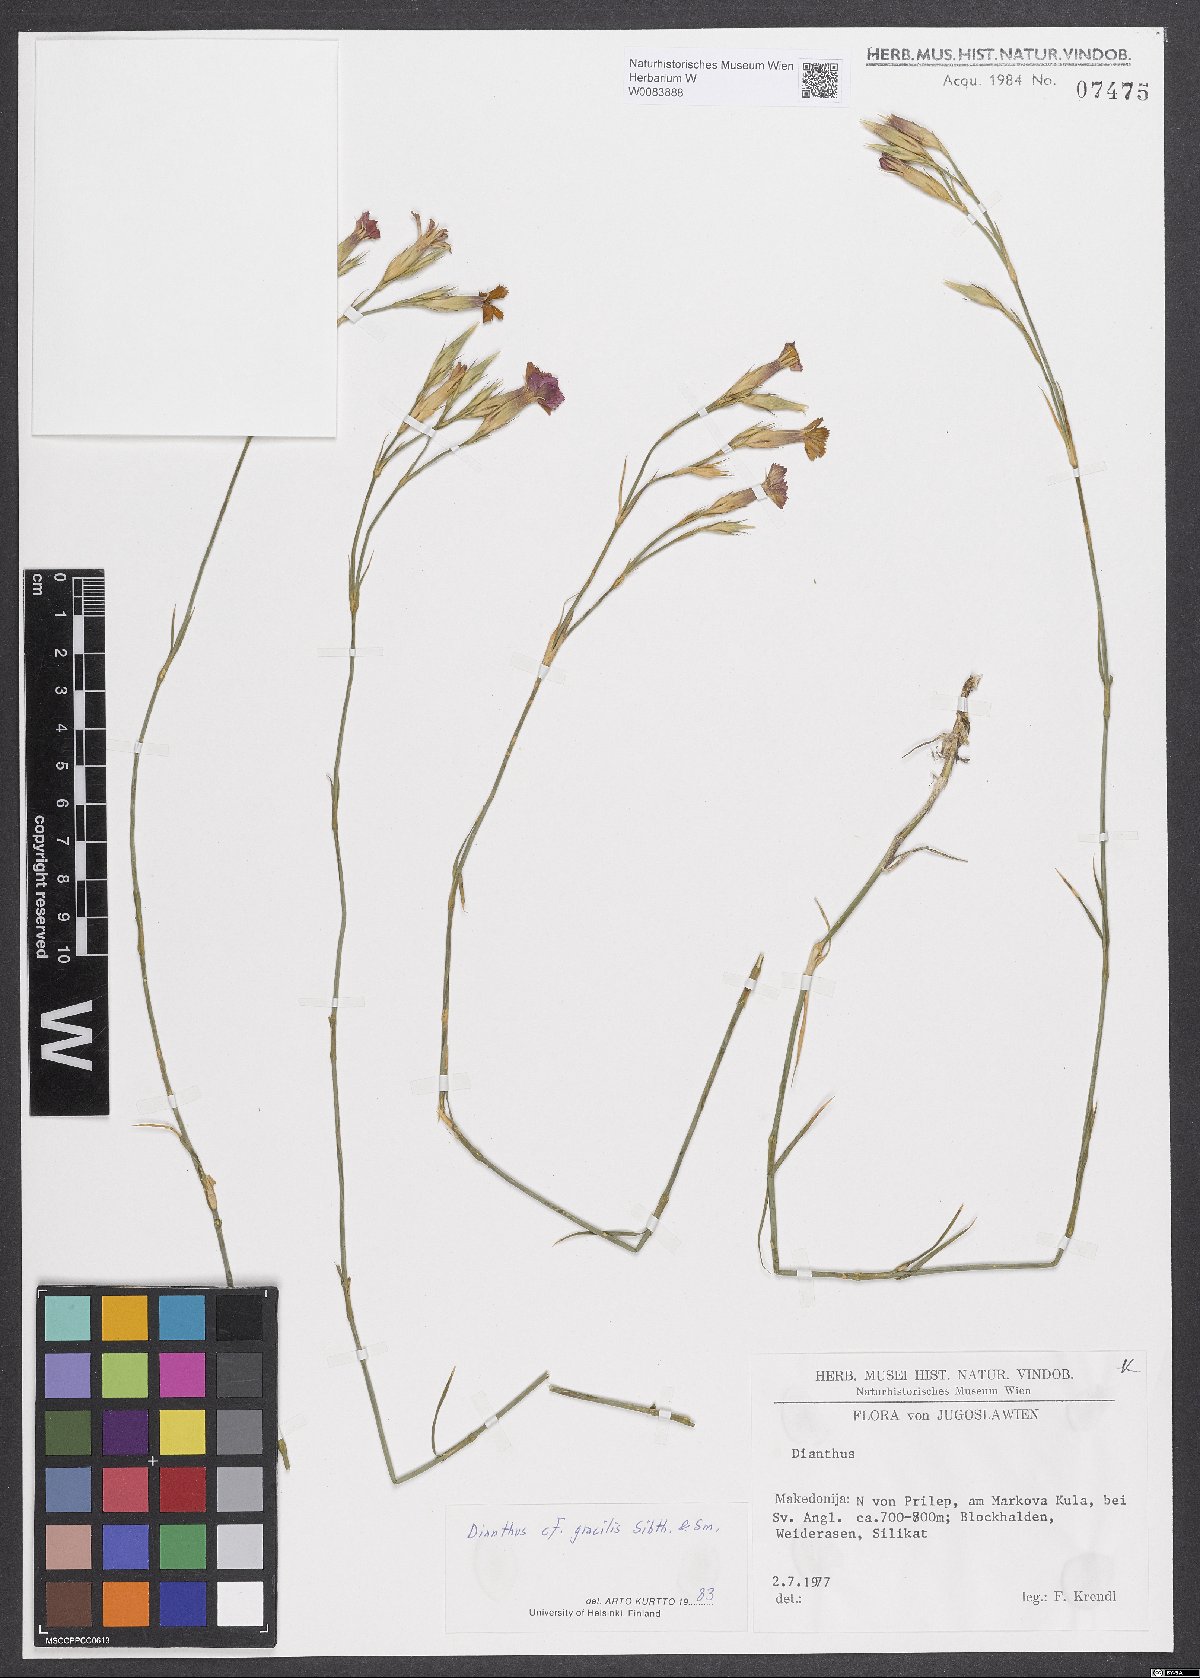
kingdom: Plantae
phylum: Tracheophyta
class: Magnoliopsida
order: Caryophyllales
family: Caryophyllaceae
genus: Dianthus
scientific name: Dianthus gracilis
